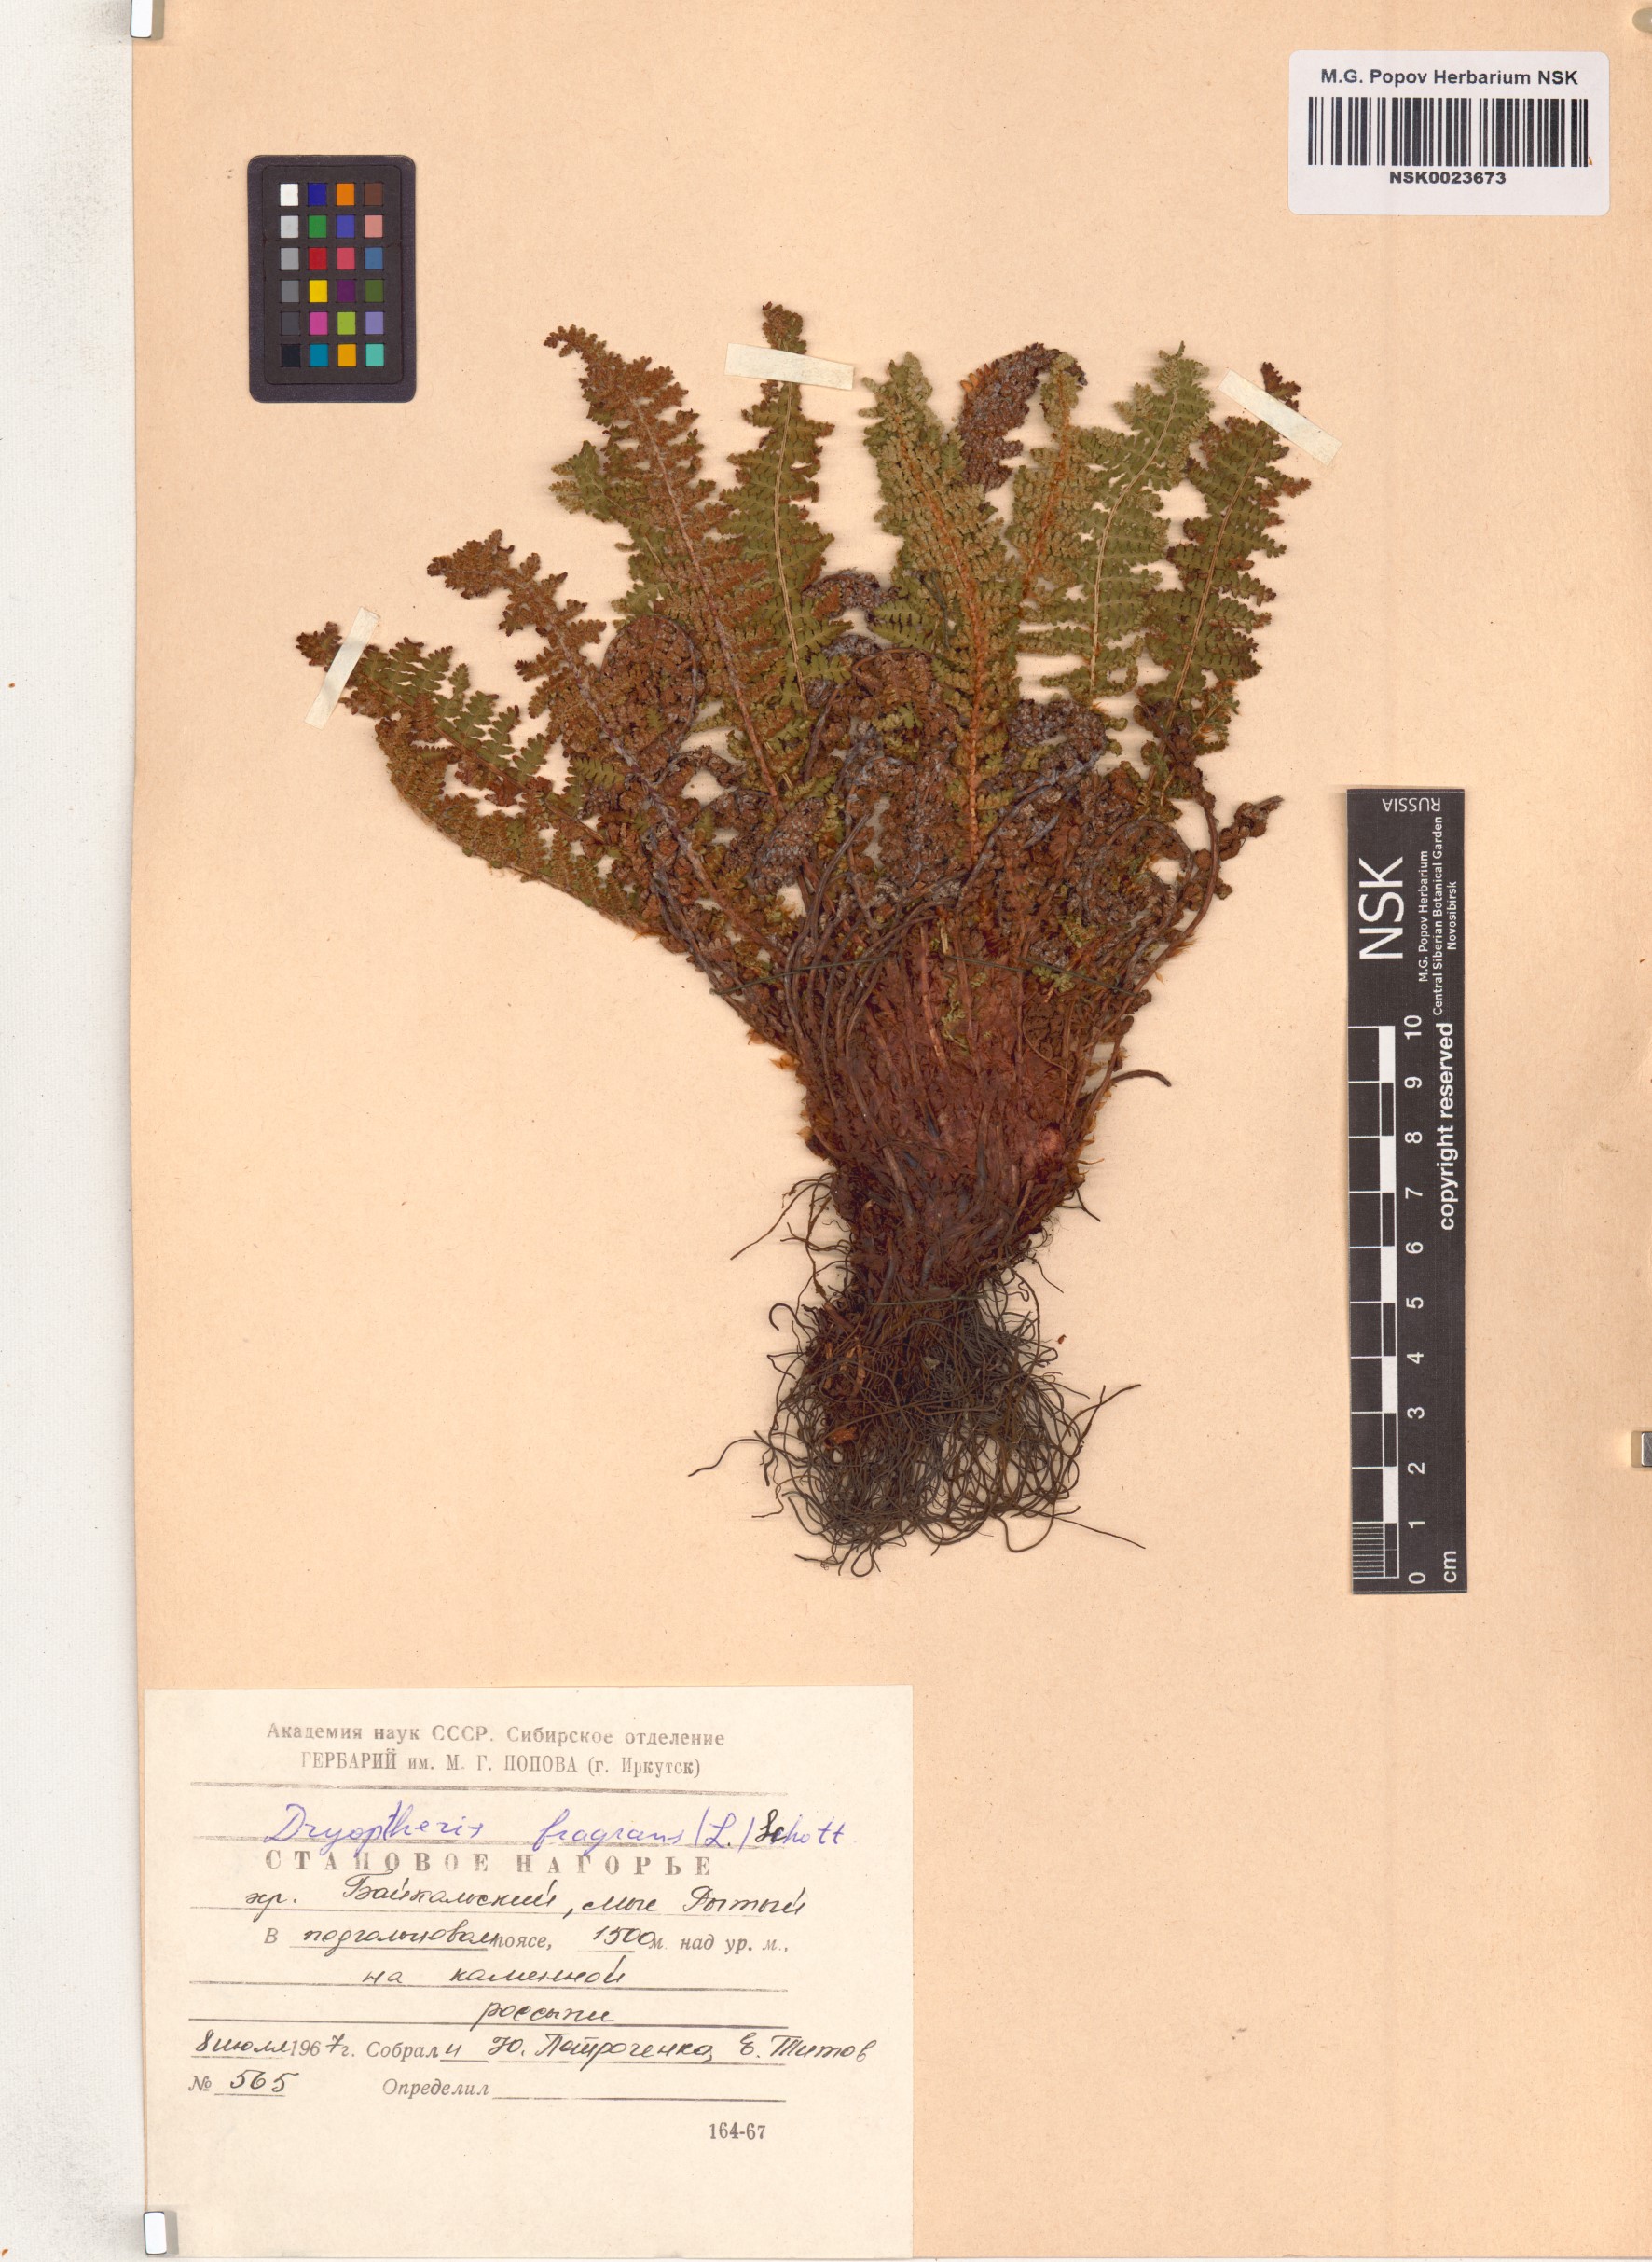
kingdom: Plantae
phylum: Tracheophyta
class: Polypodiopsida
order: Polypodiales
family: Dryopteridaceae
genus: Dryopteris
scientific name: Dryopteris fragrans
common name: Fragrant wood fern
